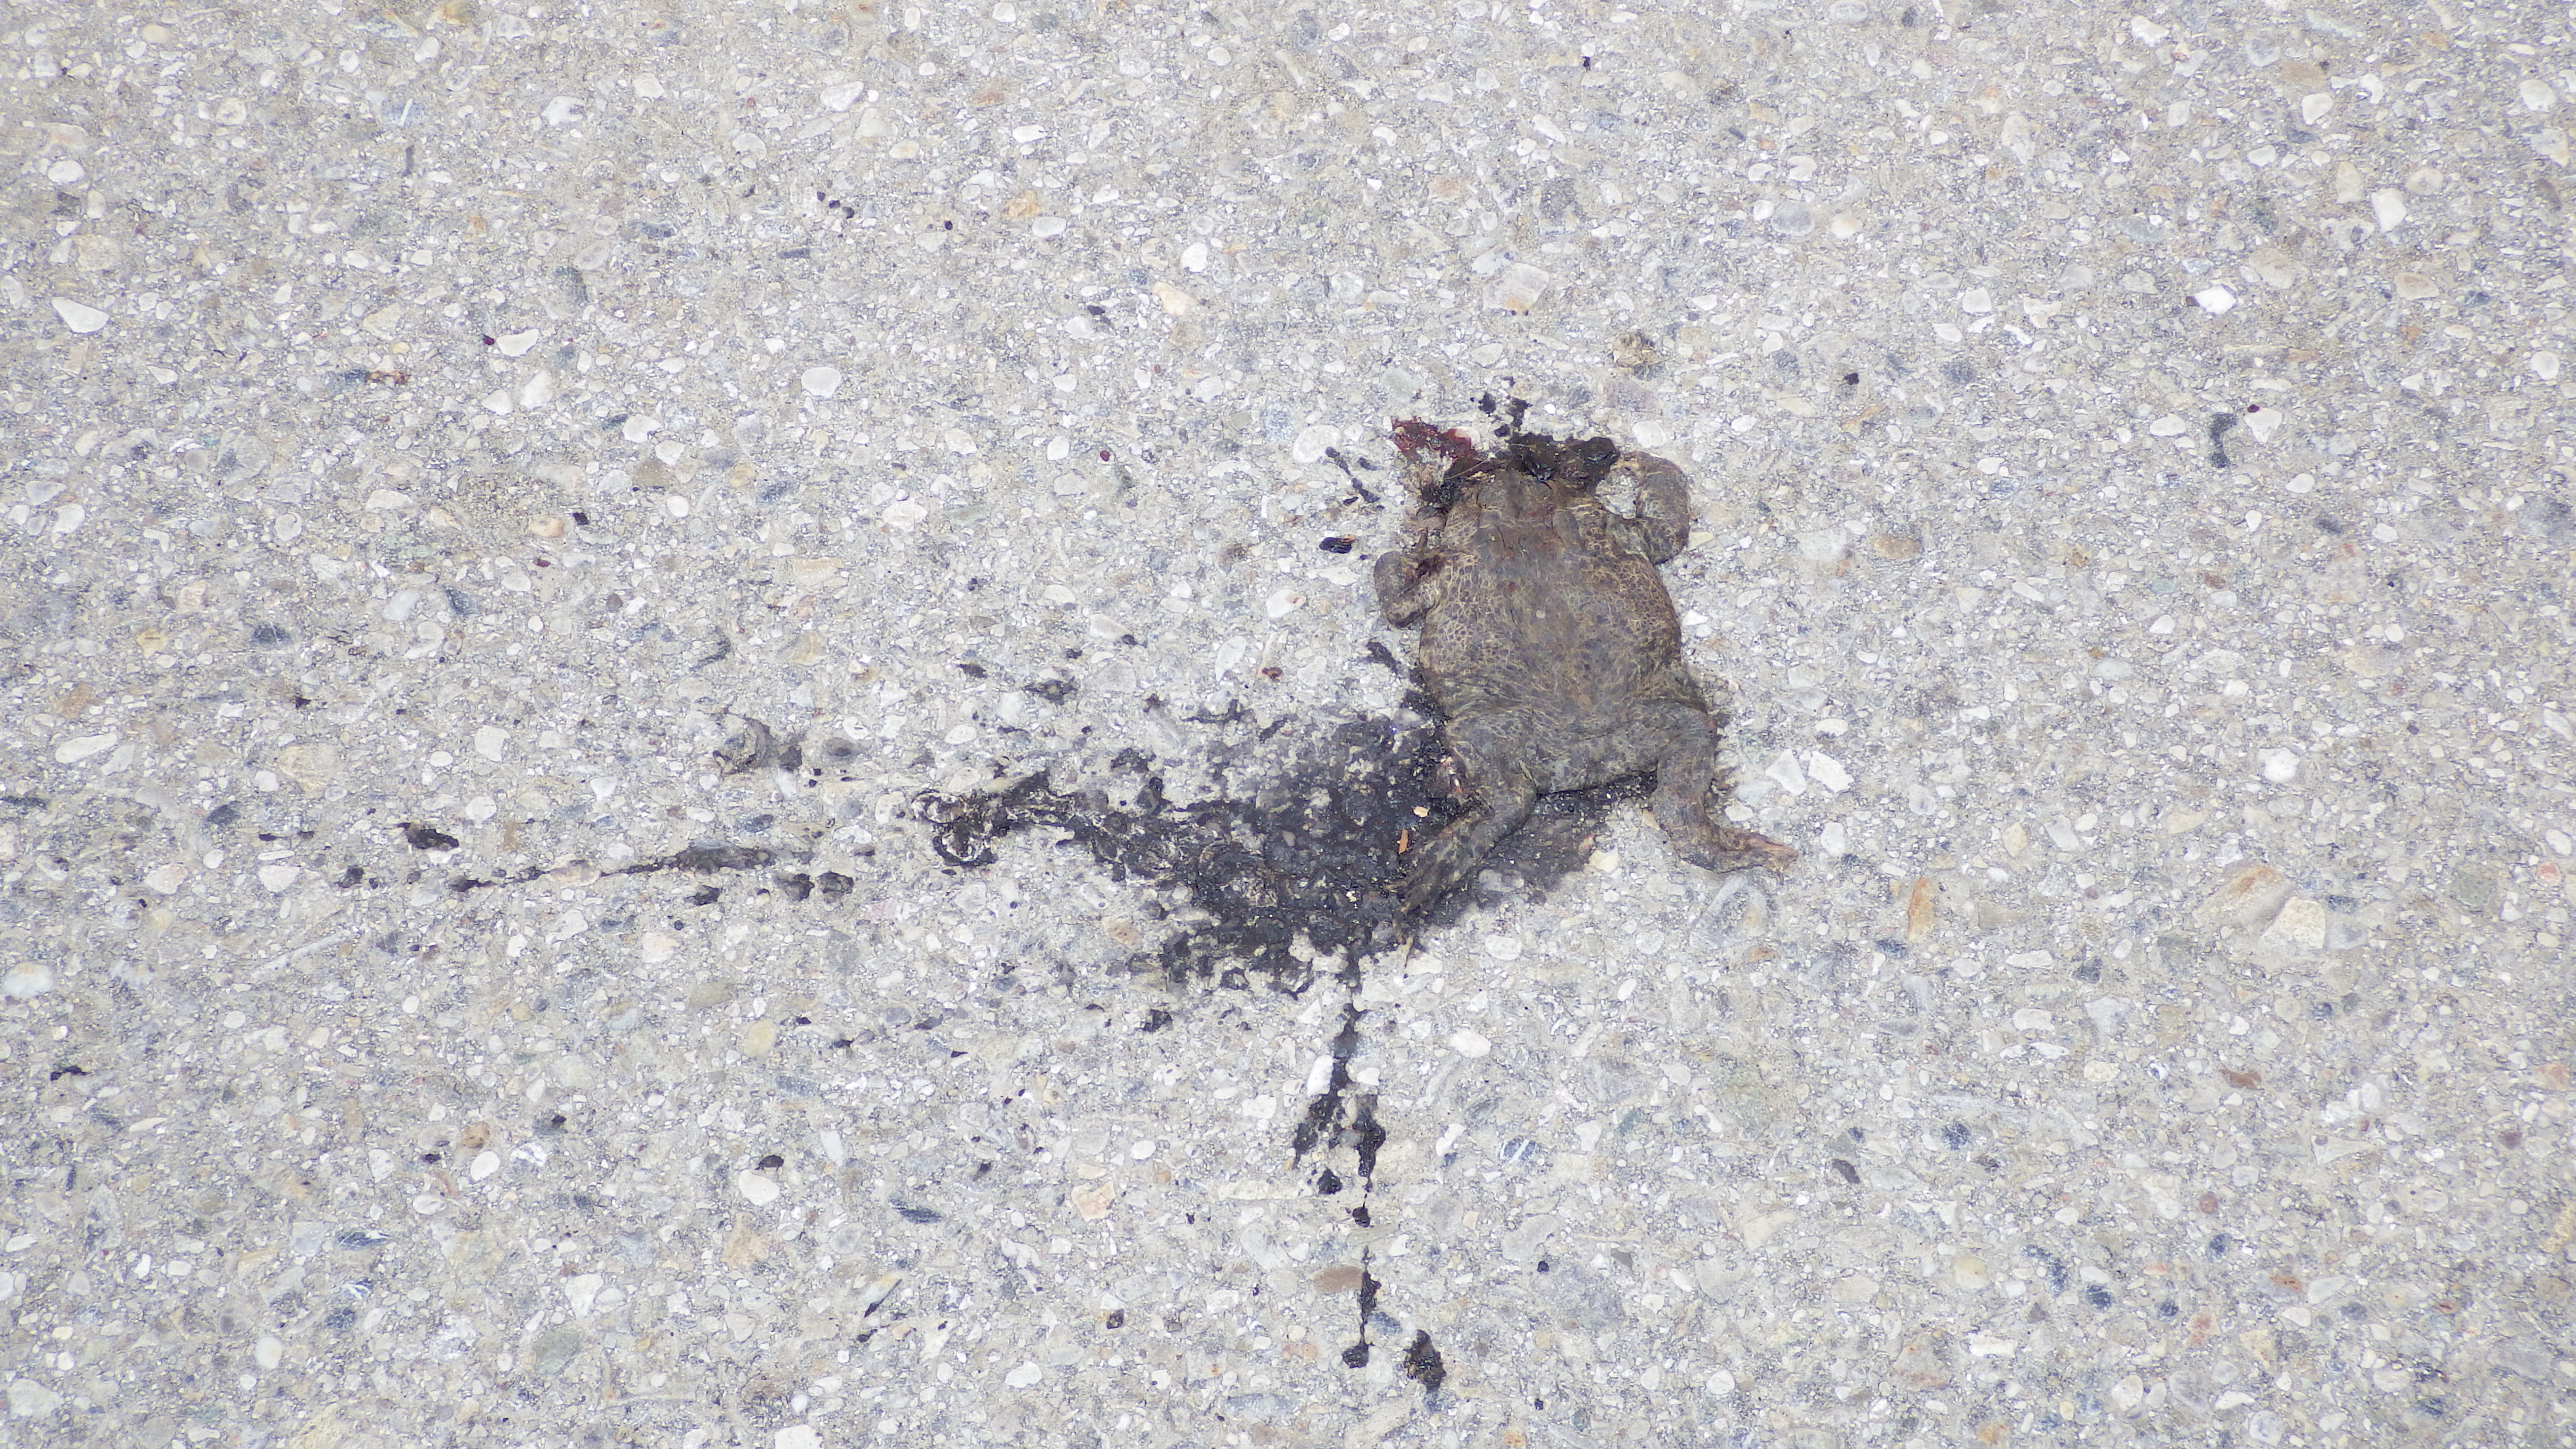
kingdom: Animalia
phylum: Chordata
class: Amphibia
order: Anura
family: Bufonidae
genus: Bufo
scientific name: Bufo bufo
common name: Common toad
